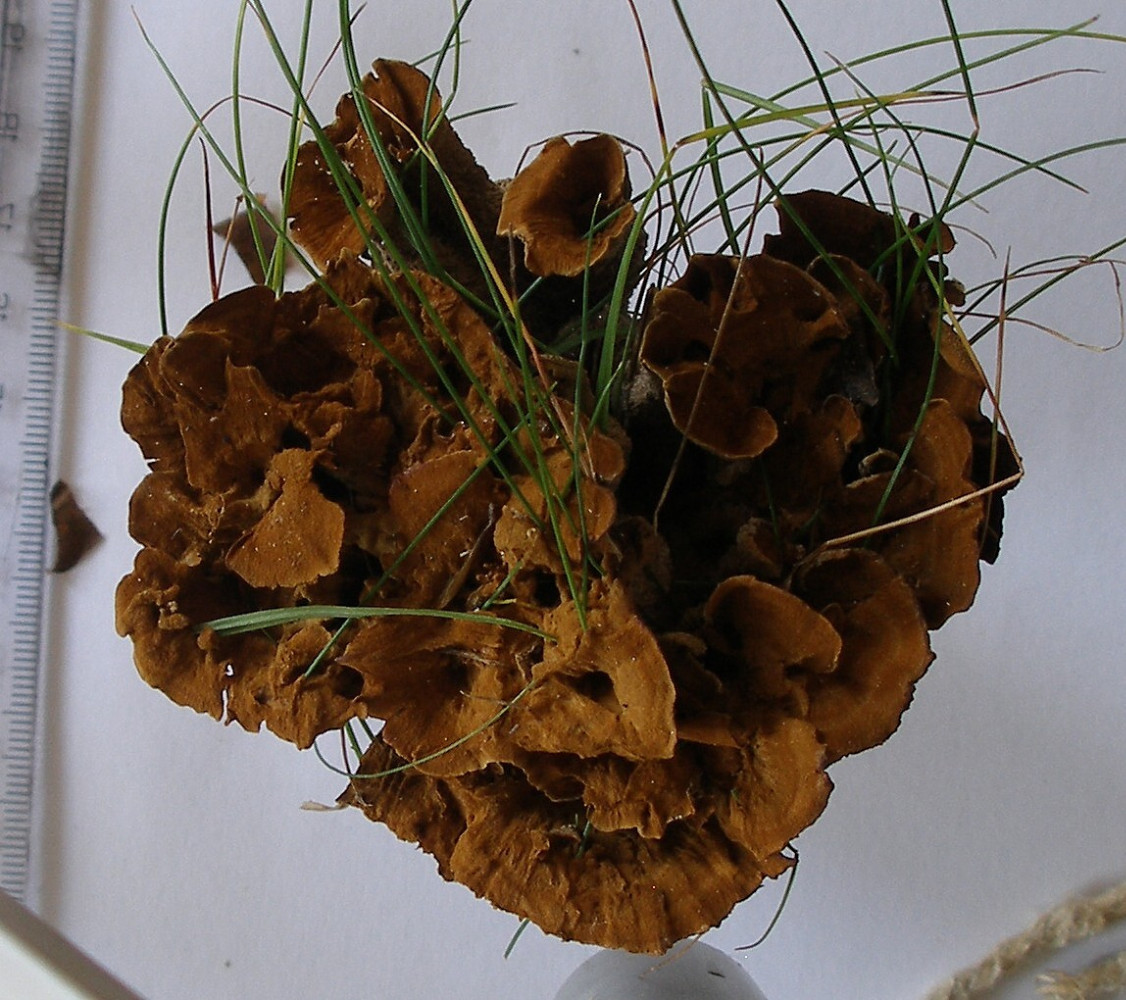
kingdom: Fungi
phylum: Basidiomycota
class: Agaricomycetes
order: Hymenochaetales
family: Hymenochaetaceae
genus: Coltricia
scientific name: Coltricia confluens
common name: park-sandporesvamp
